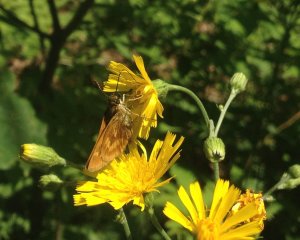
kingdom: Animalia
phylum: Arthropoda
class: Insecta
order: Lepidoptera
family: Hesperiidae
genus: Polites
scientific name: Polites
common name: Long Dash Skipper
